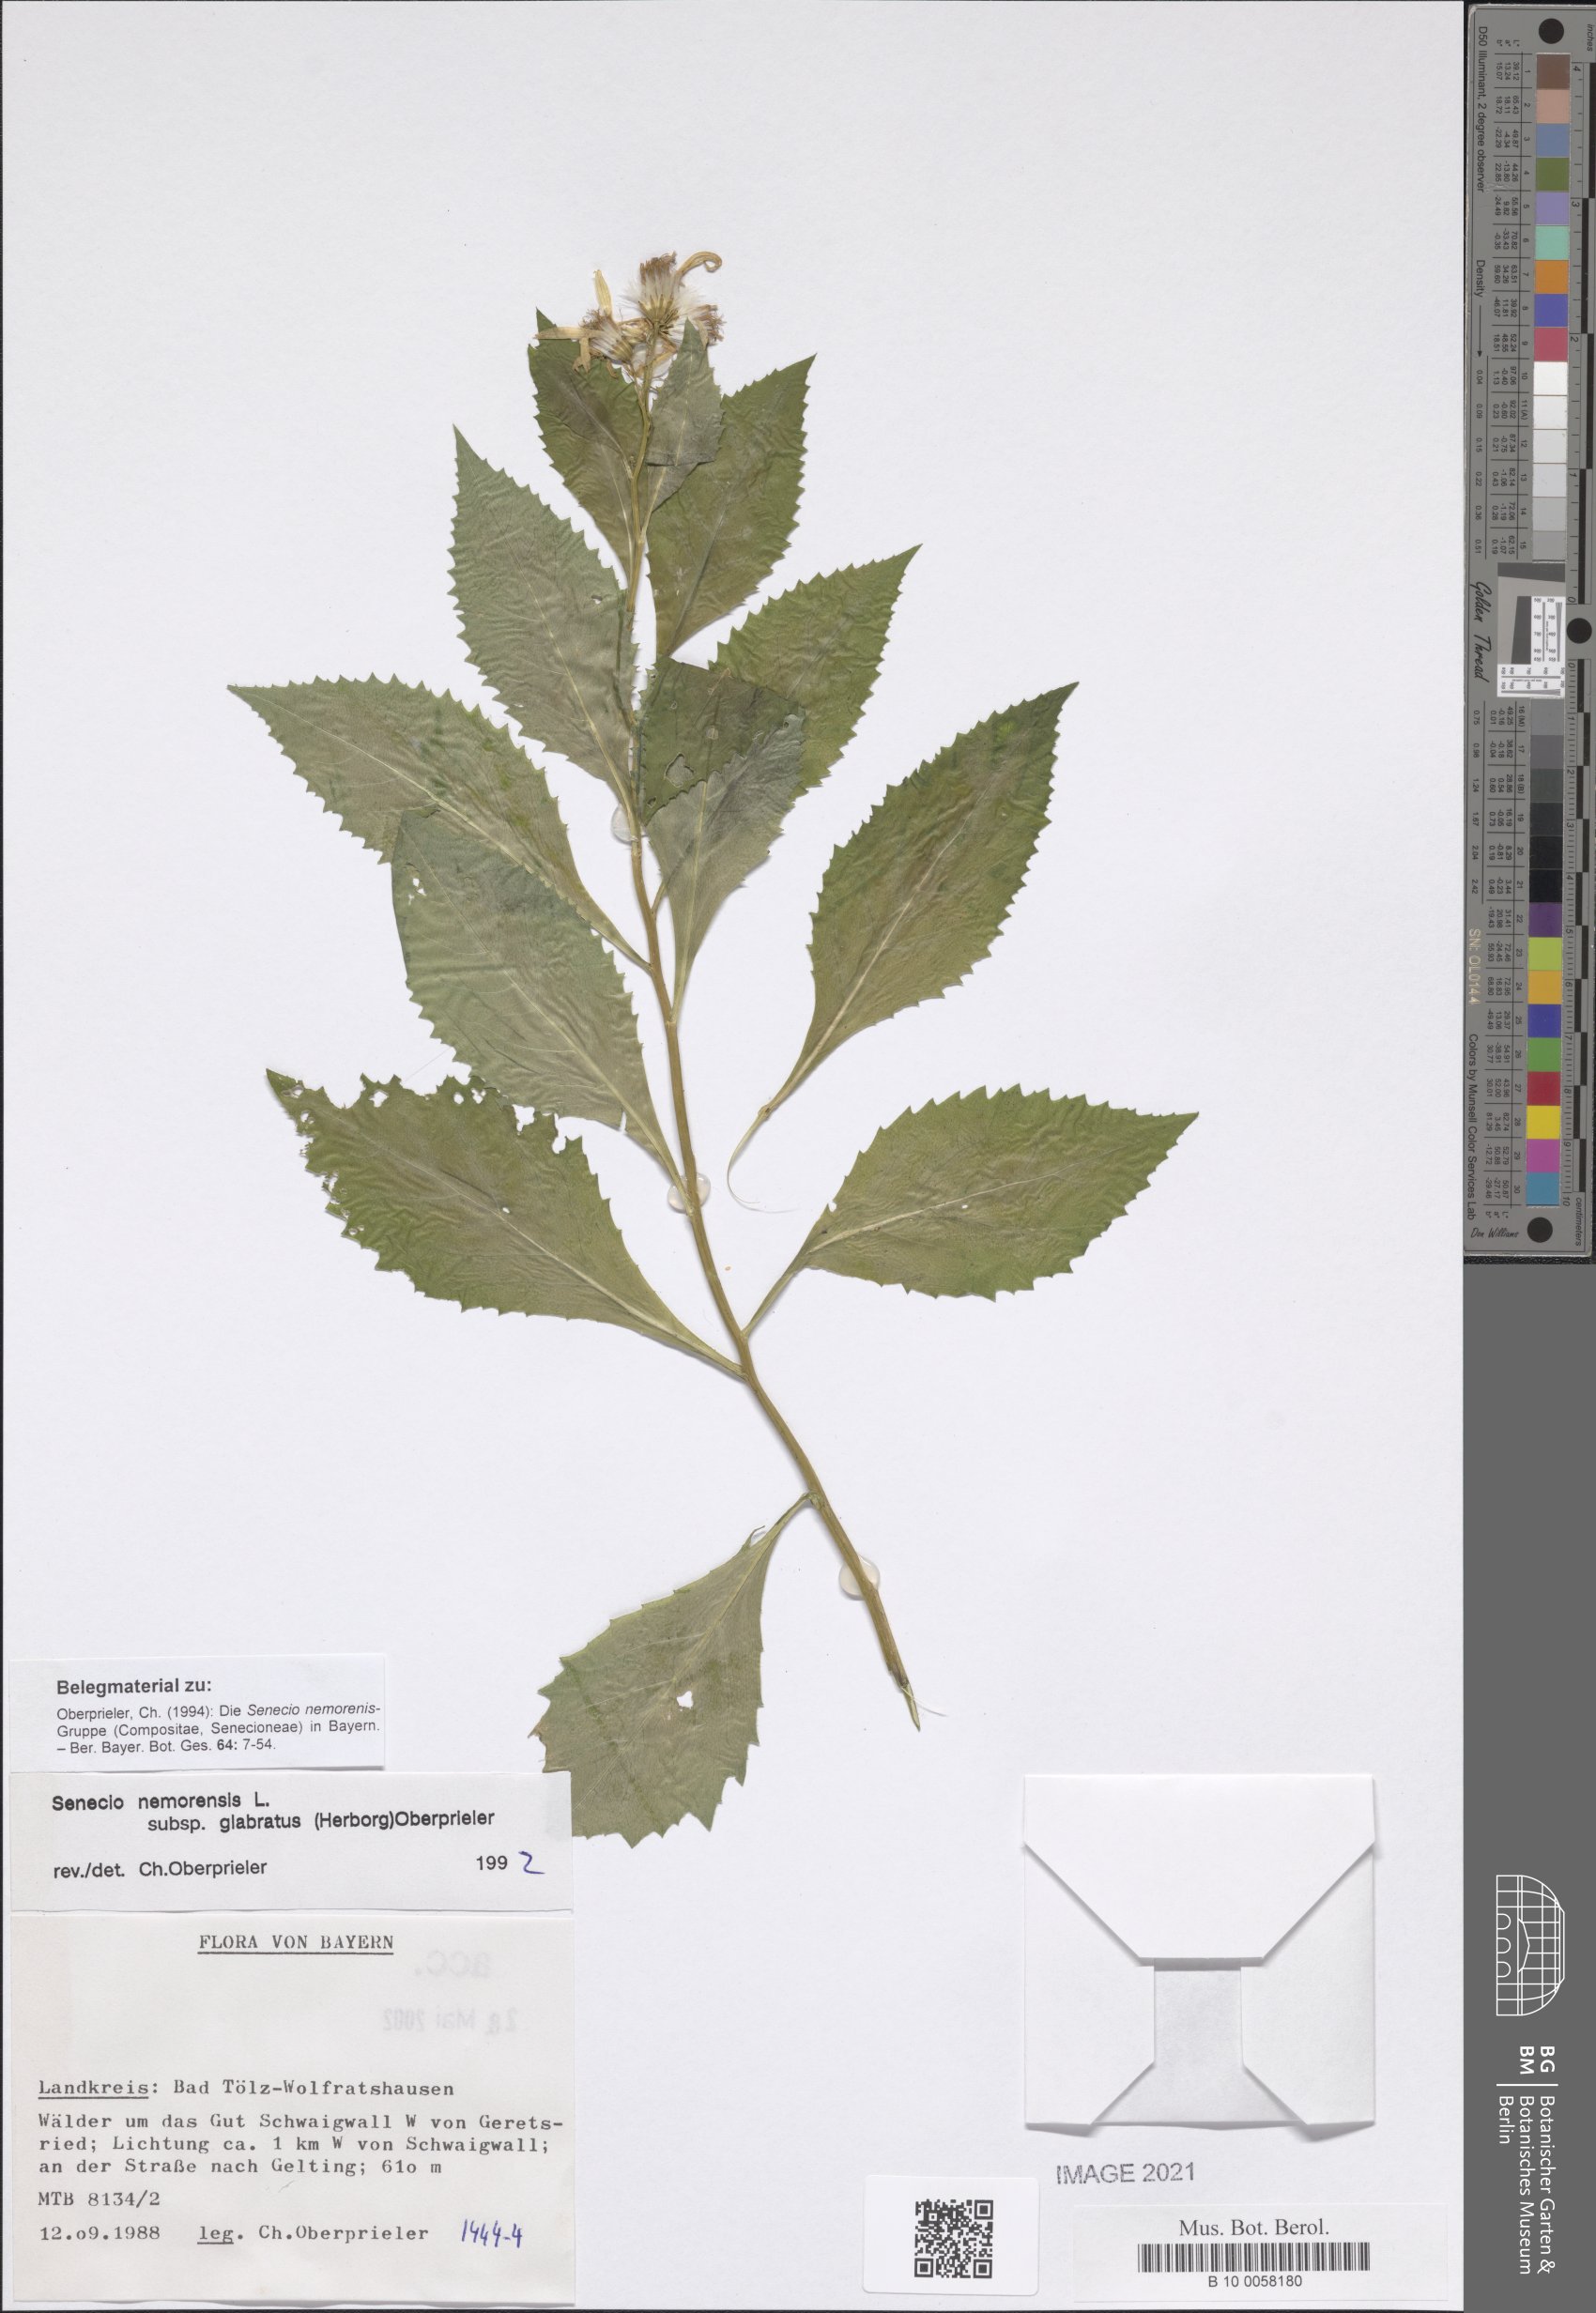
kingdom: Plantae
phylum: Tracheophyta
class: Magnoliopsida
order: Asterales
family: Asteraceae
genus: Senecio
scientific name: Senecio germanicus
